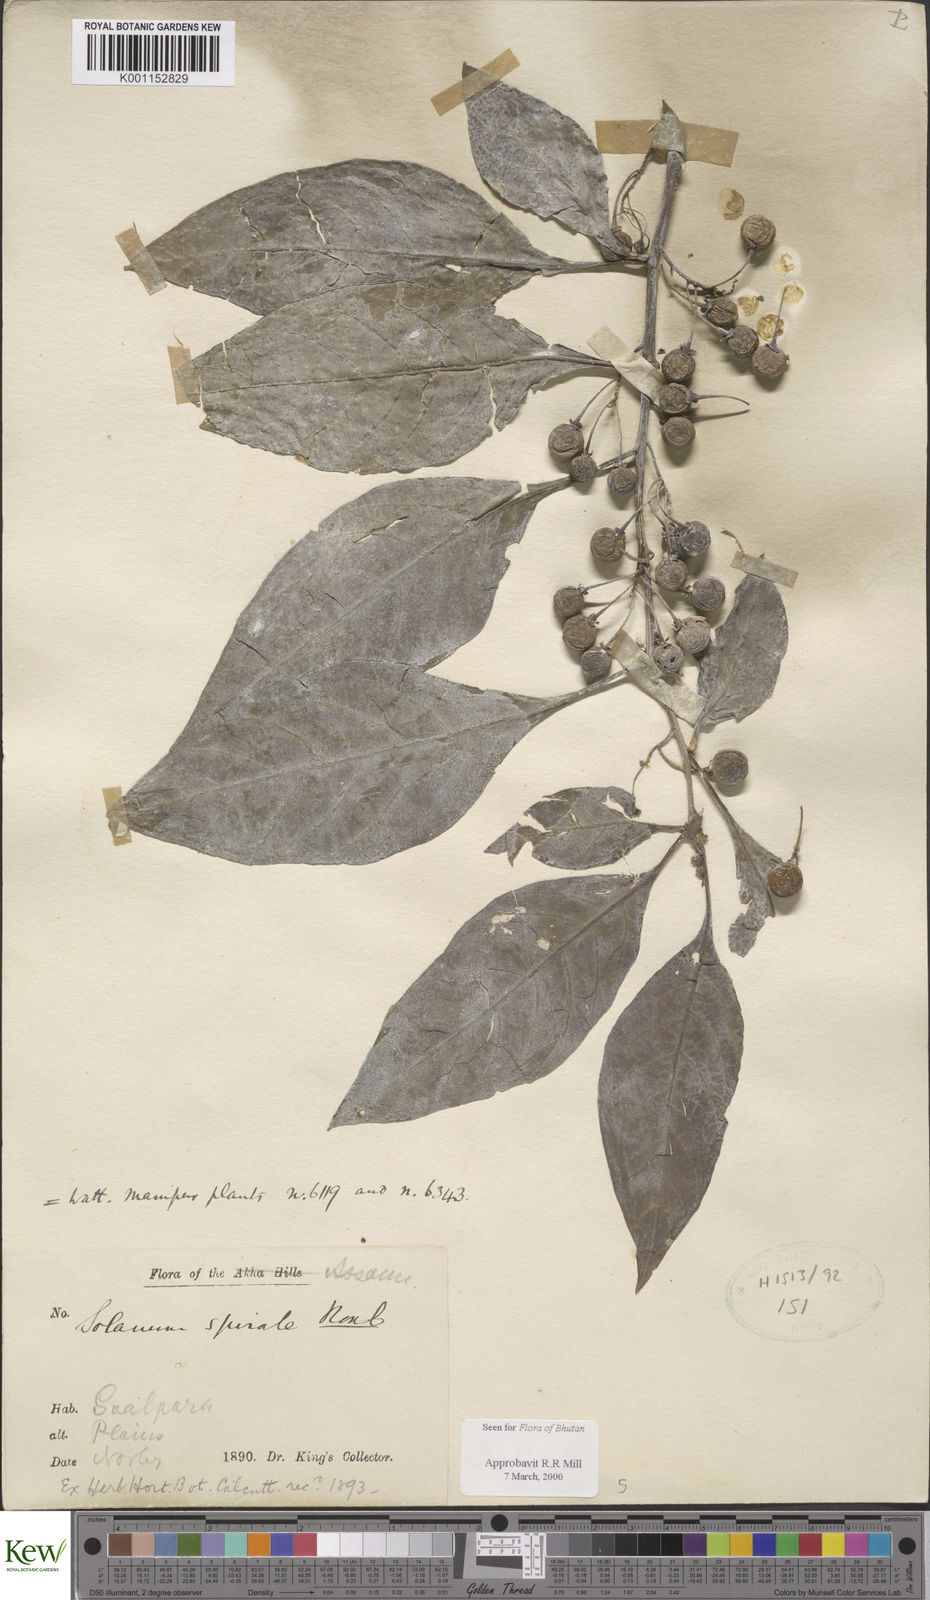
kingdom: Plantae
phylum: Tracheophyta
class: Magnoliopsida
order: Solanales
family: Solanaceae
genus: Solanum
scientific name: Solanum spirale
